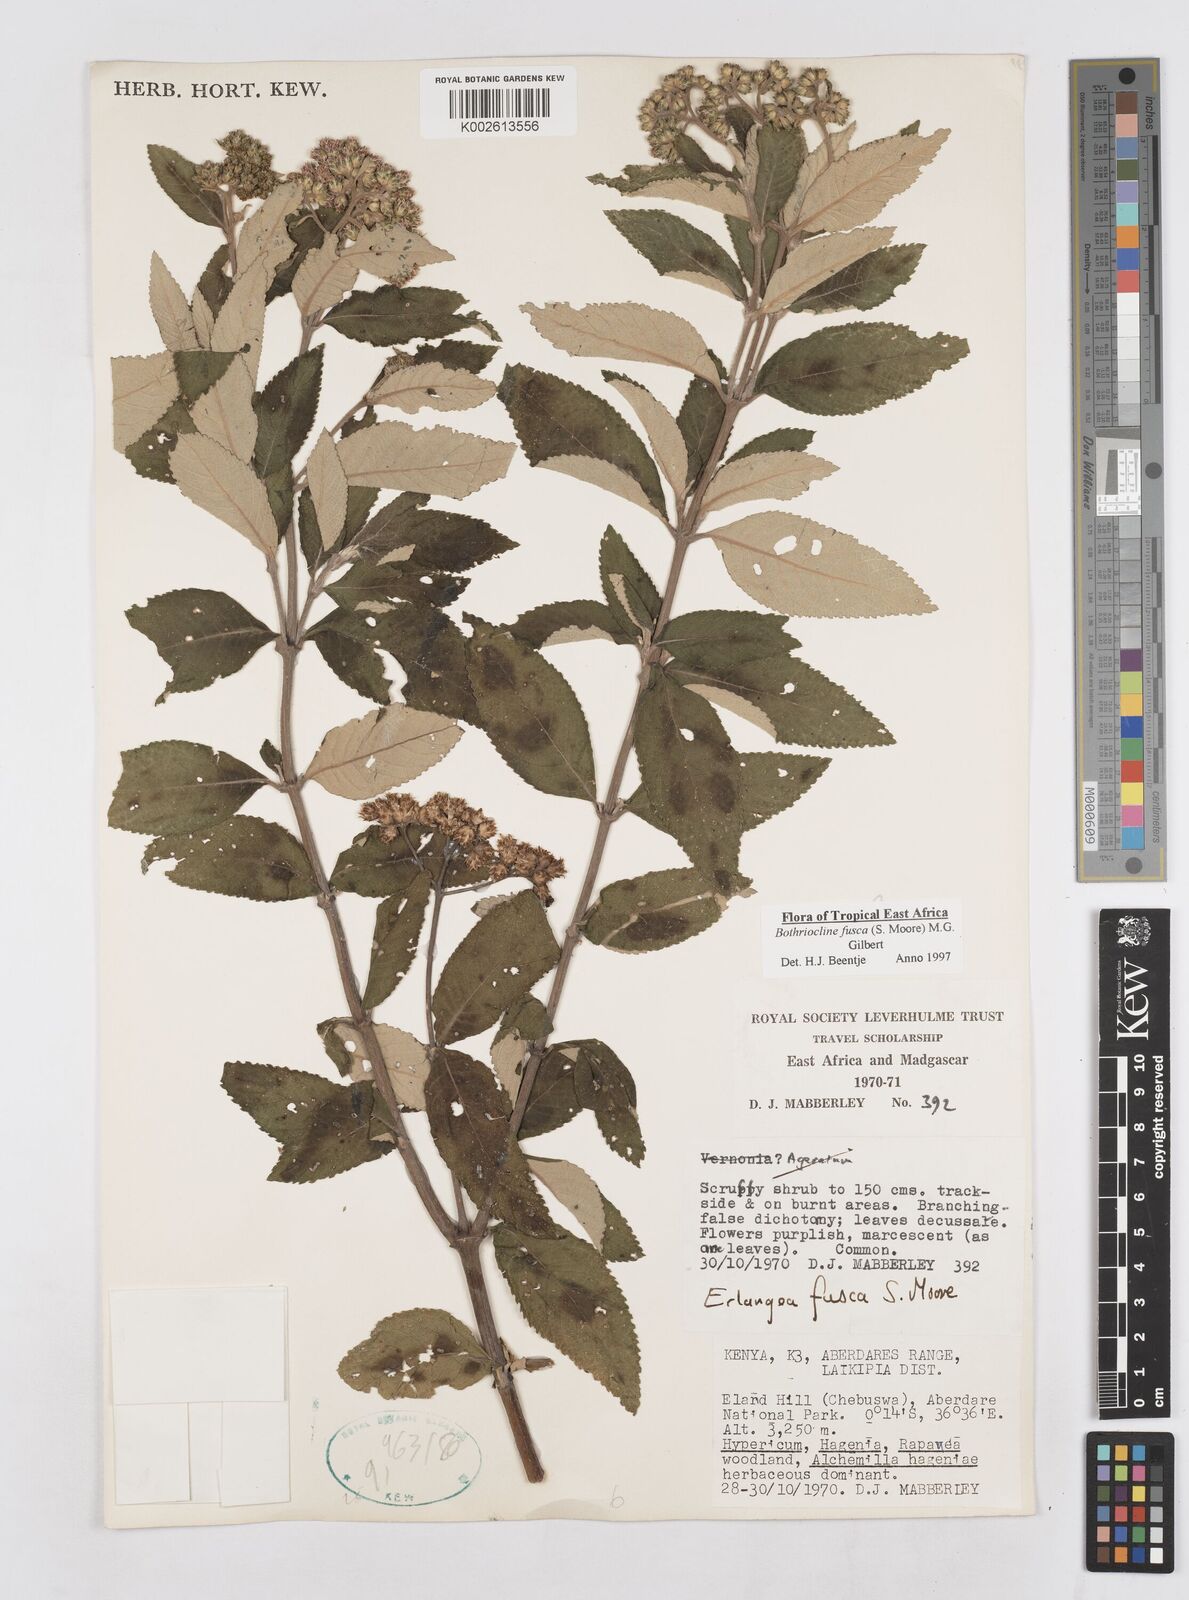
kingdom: Plantae
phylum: Tracheophyta
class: Magnoliopsida
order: Asterales
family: Asteraceae
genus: Bothriocline
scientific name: Bothriocline fusca
